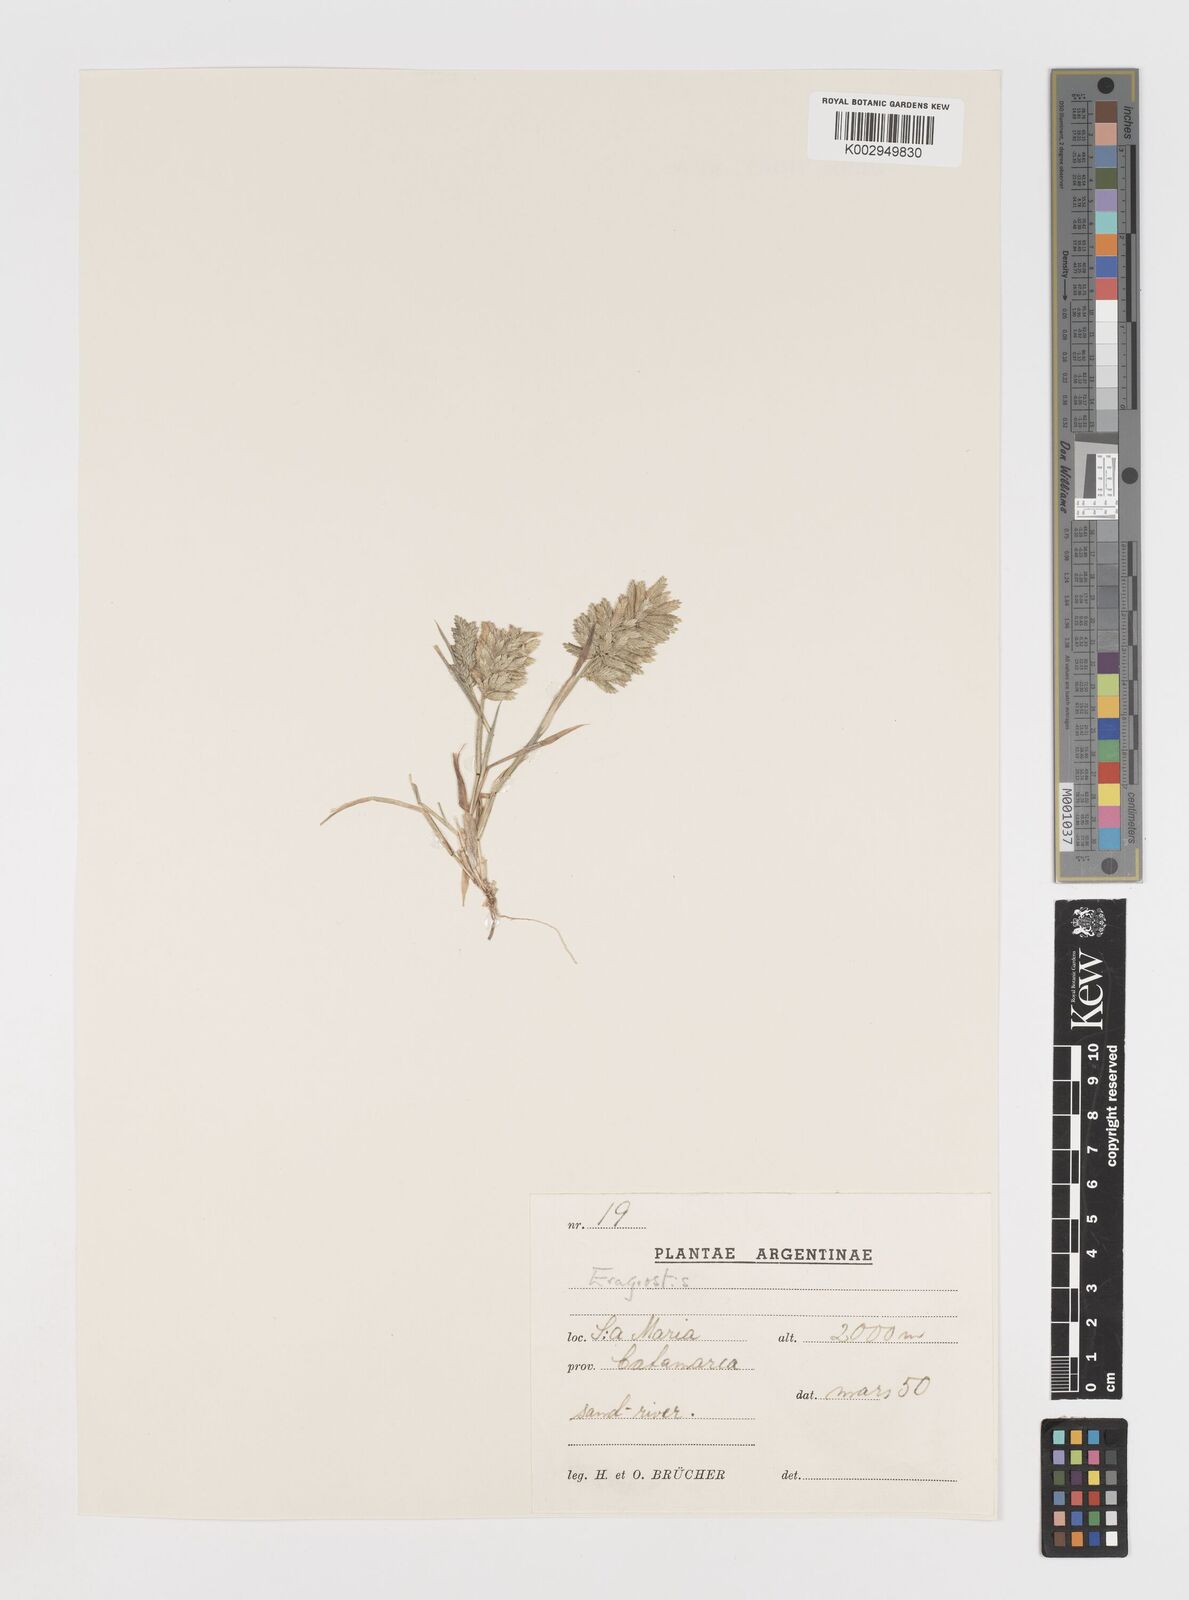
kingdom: Plantae
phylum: Tracheophyta
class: Liliopsida
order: Poales
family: Poaceae
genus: Eragrostis
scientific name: Eragrostis cilianensis
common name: Stinkgrass
